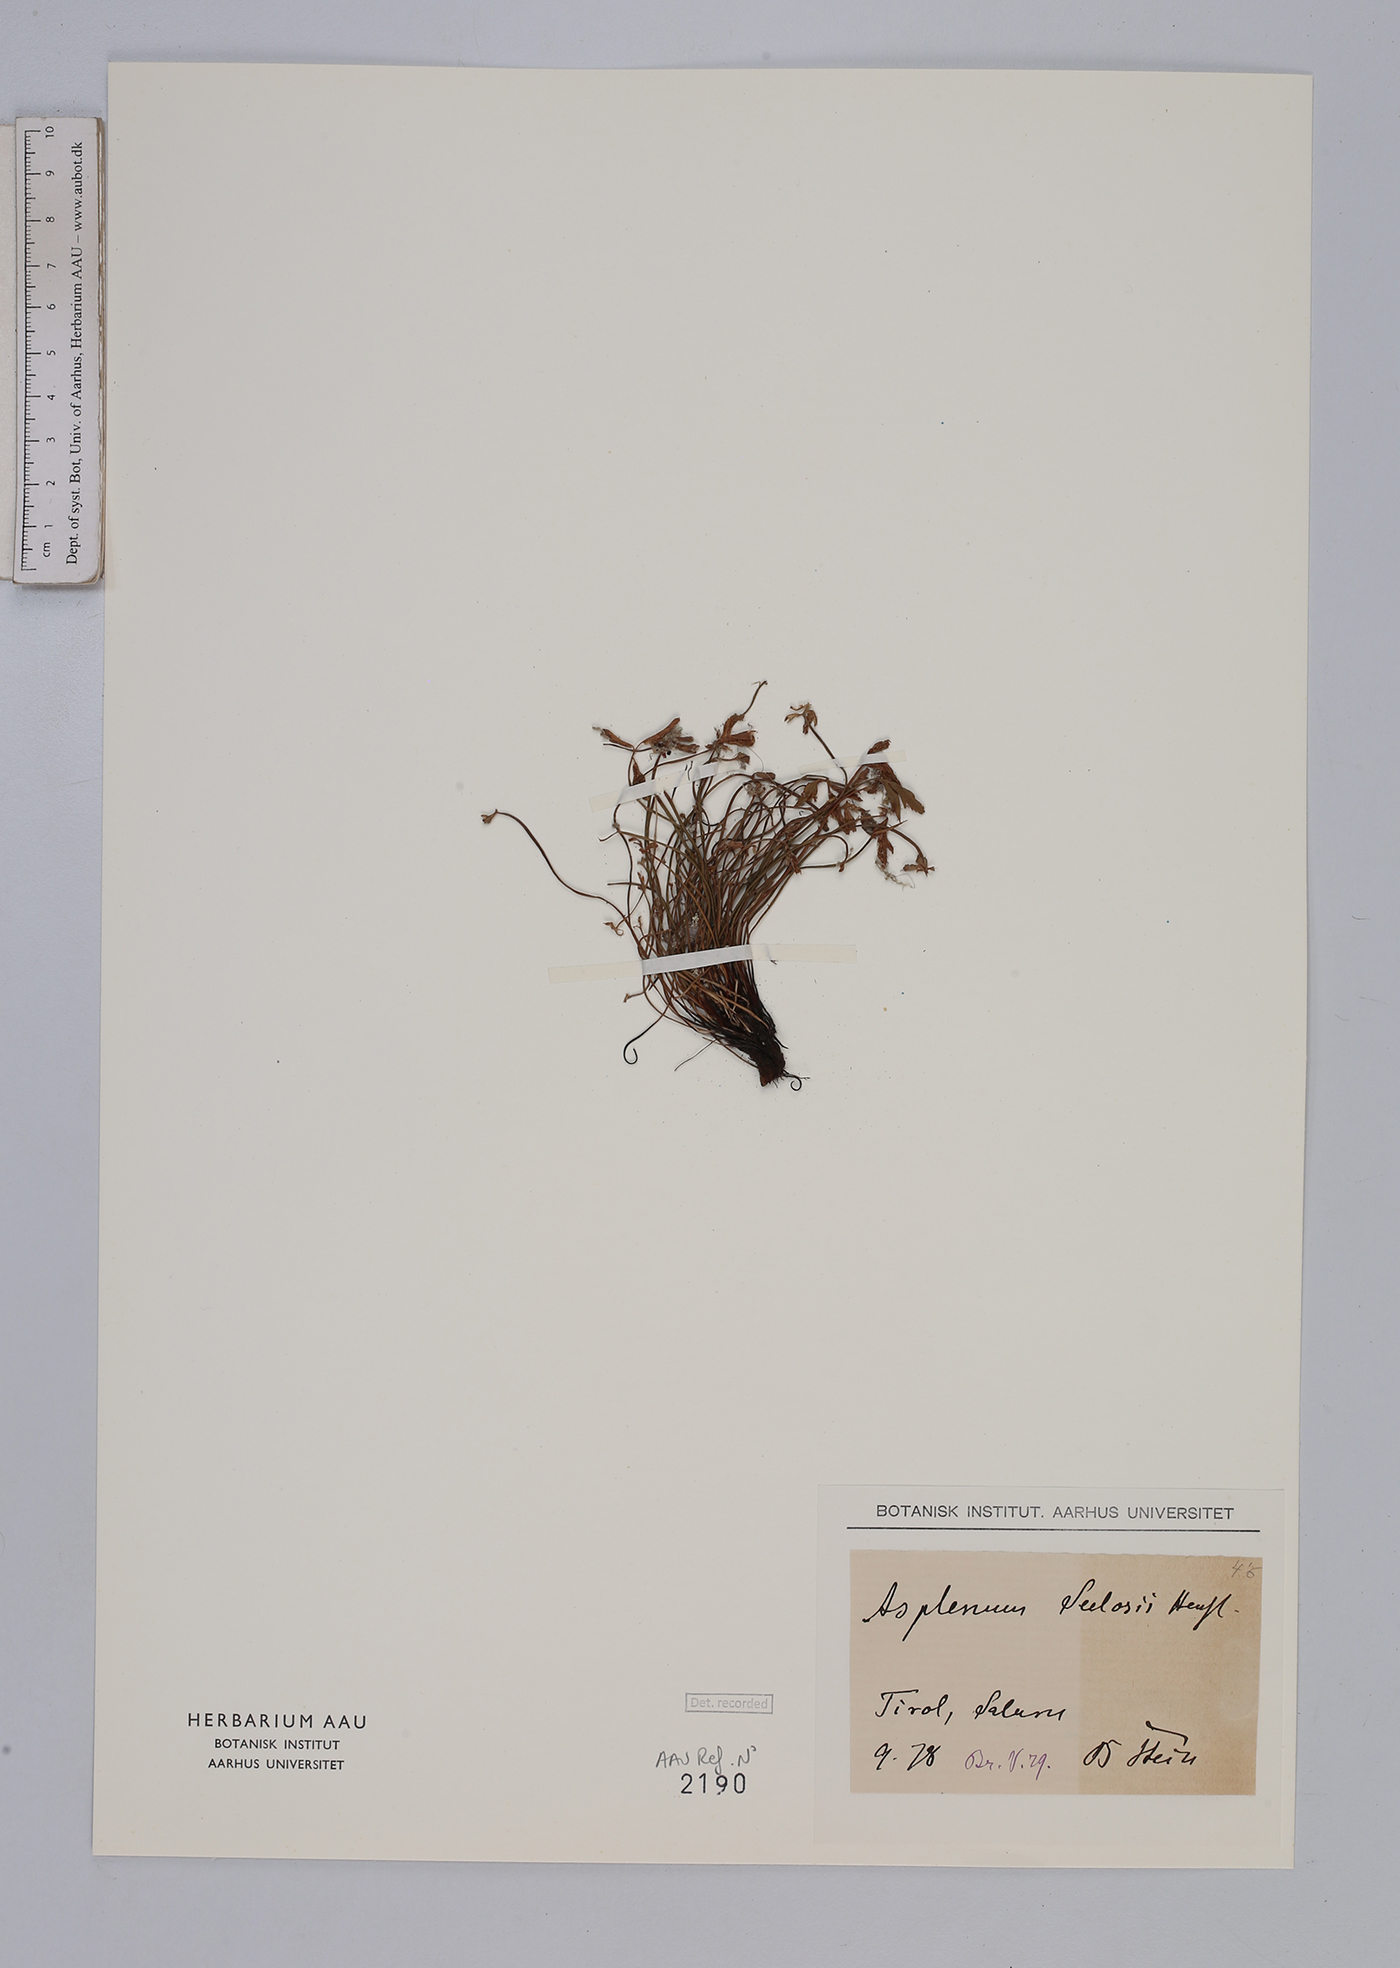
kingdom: Plantae
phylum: Tracheophyta
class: Polypodiopsida
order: Polypodiales
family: Aspleniaceae
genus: Asplenium
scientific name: Asplenium seelosii
